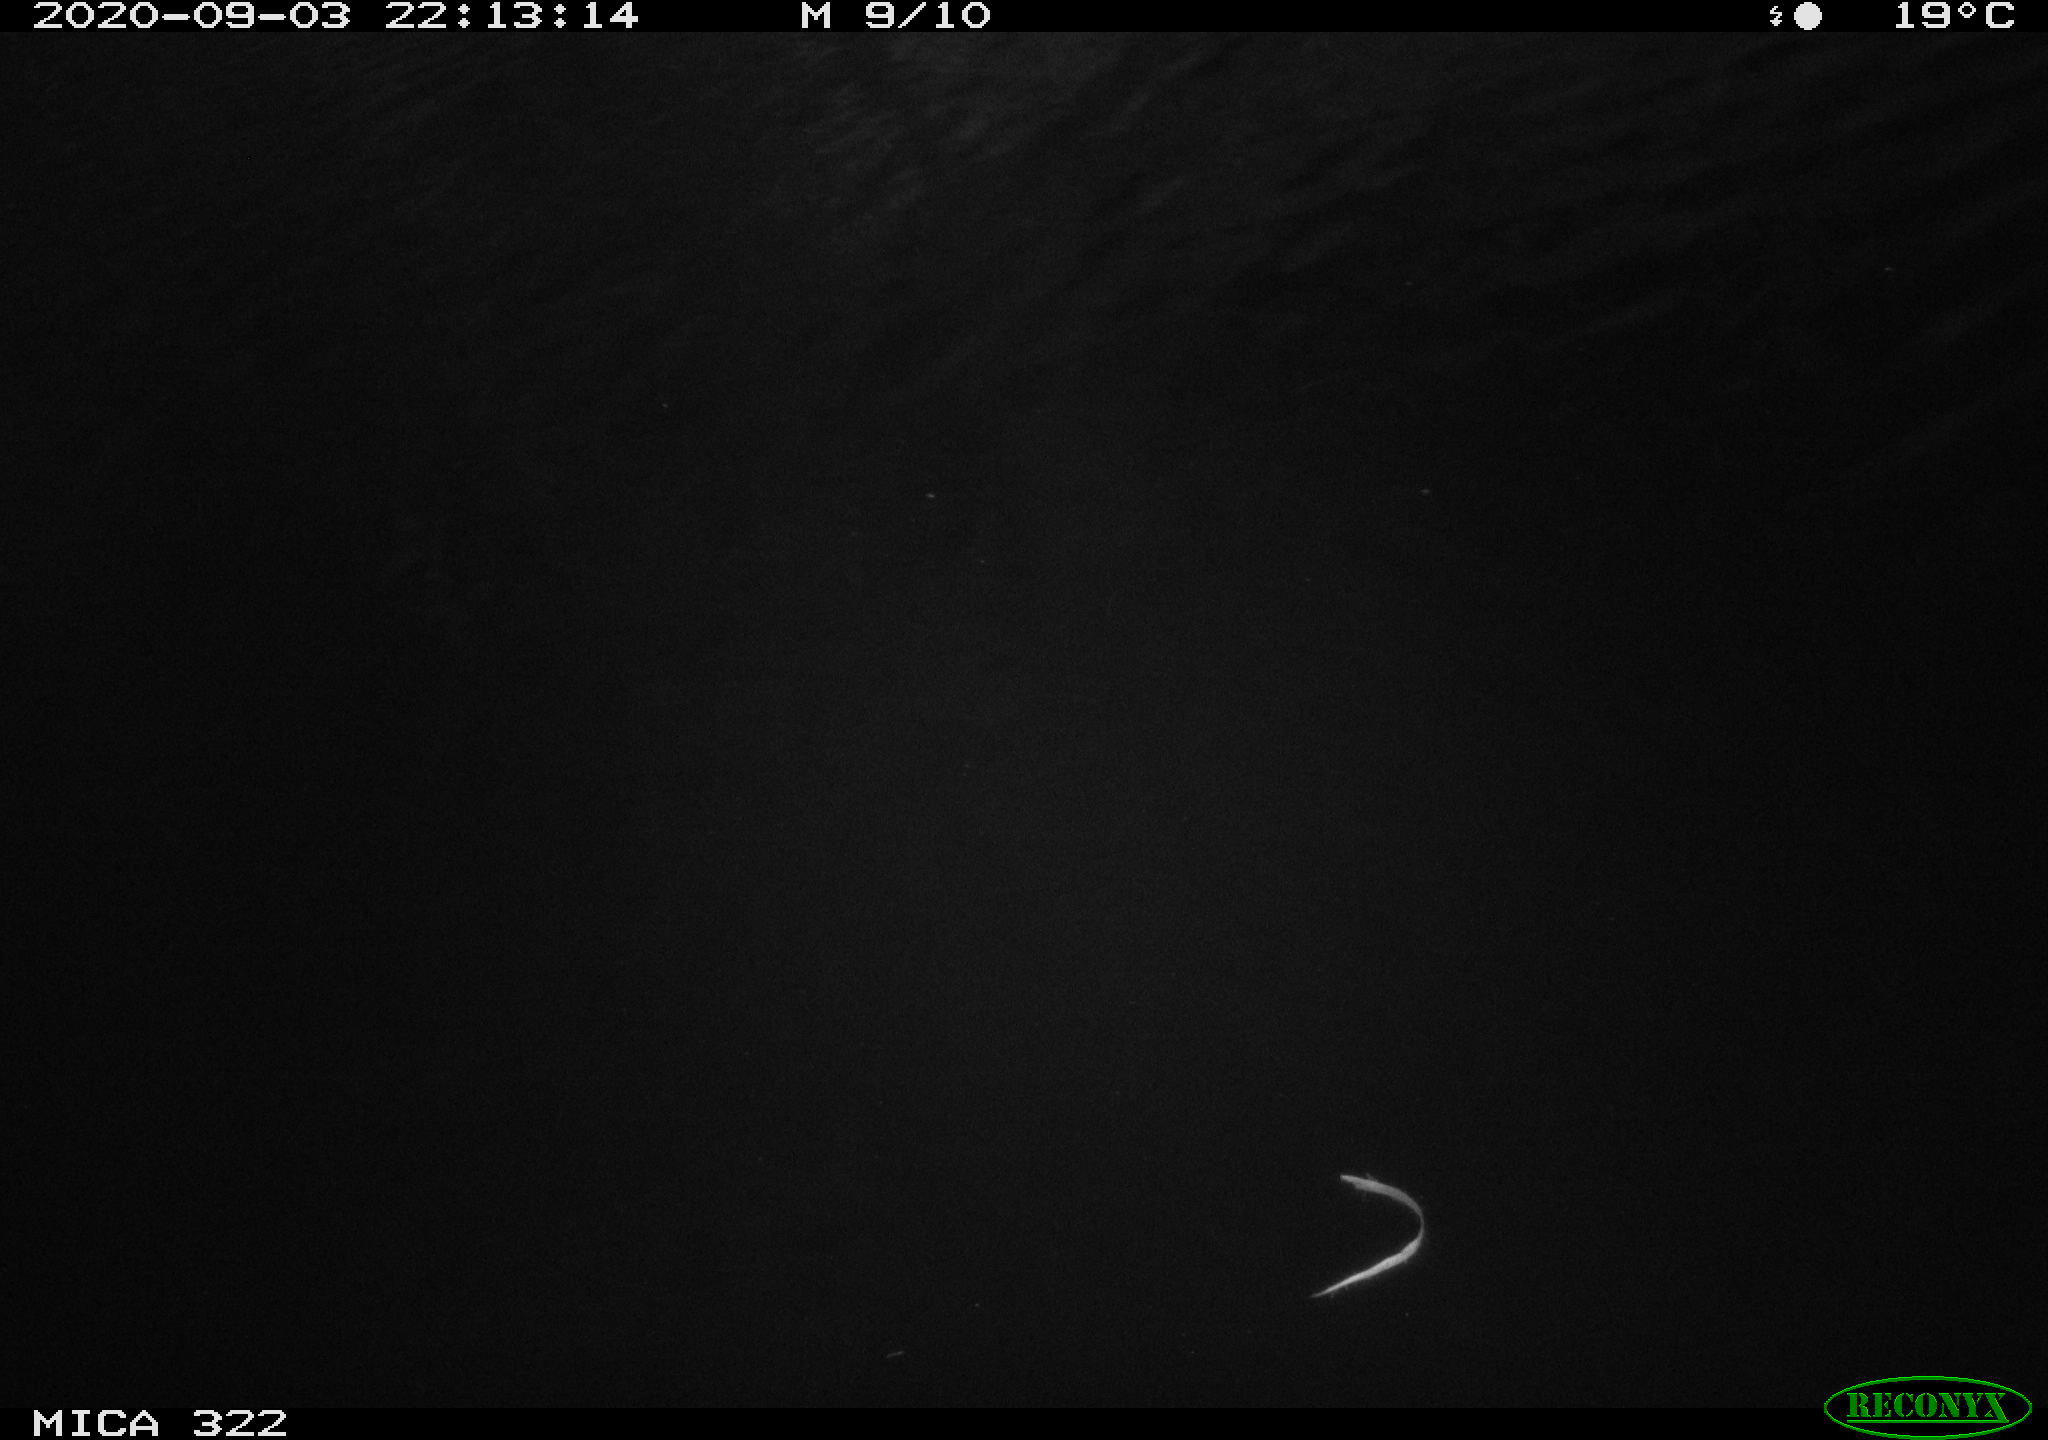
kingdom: Animalia
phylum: Chordata
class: Mammalia
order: Rodentia
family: Muridae
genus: Rattus
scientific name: Rattus norvegicus
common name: Brown rat
